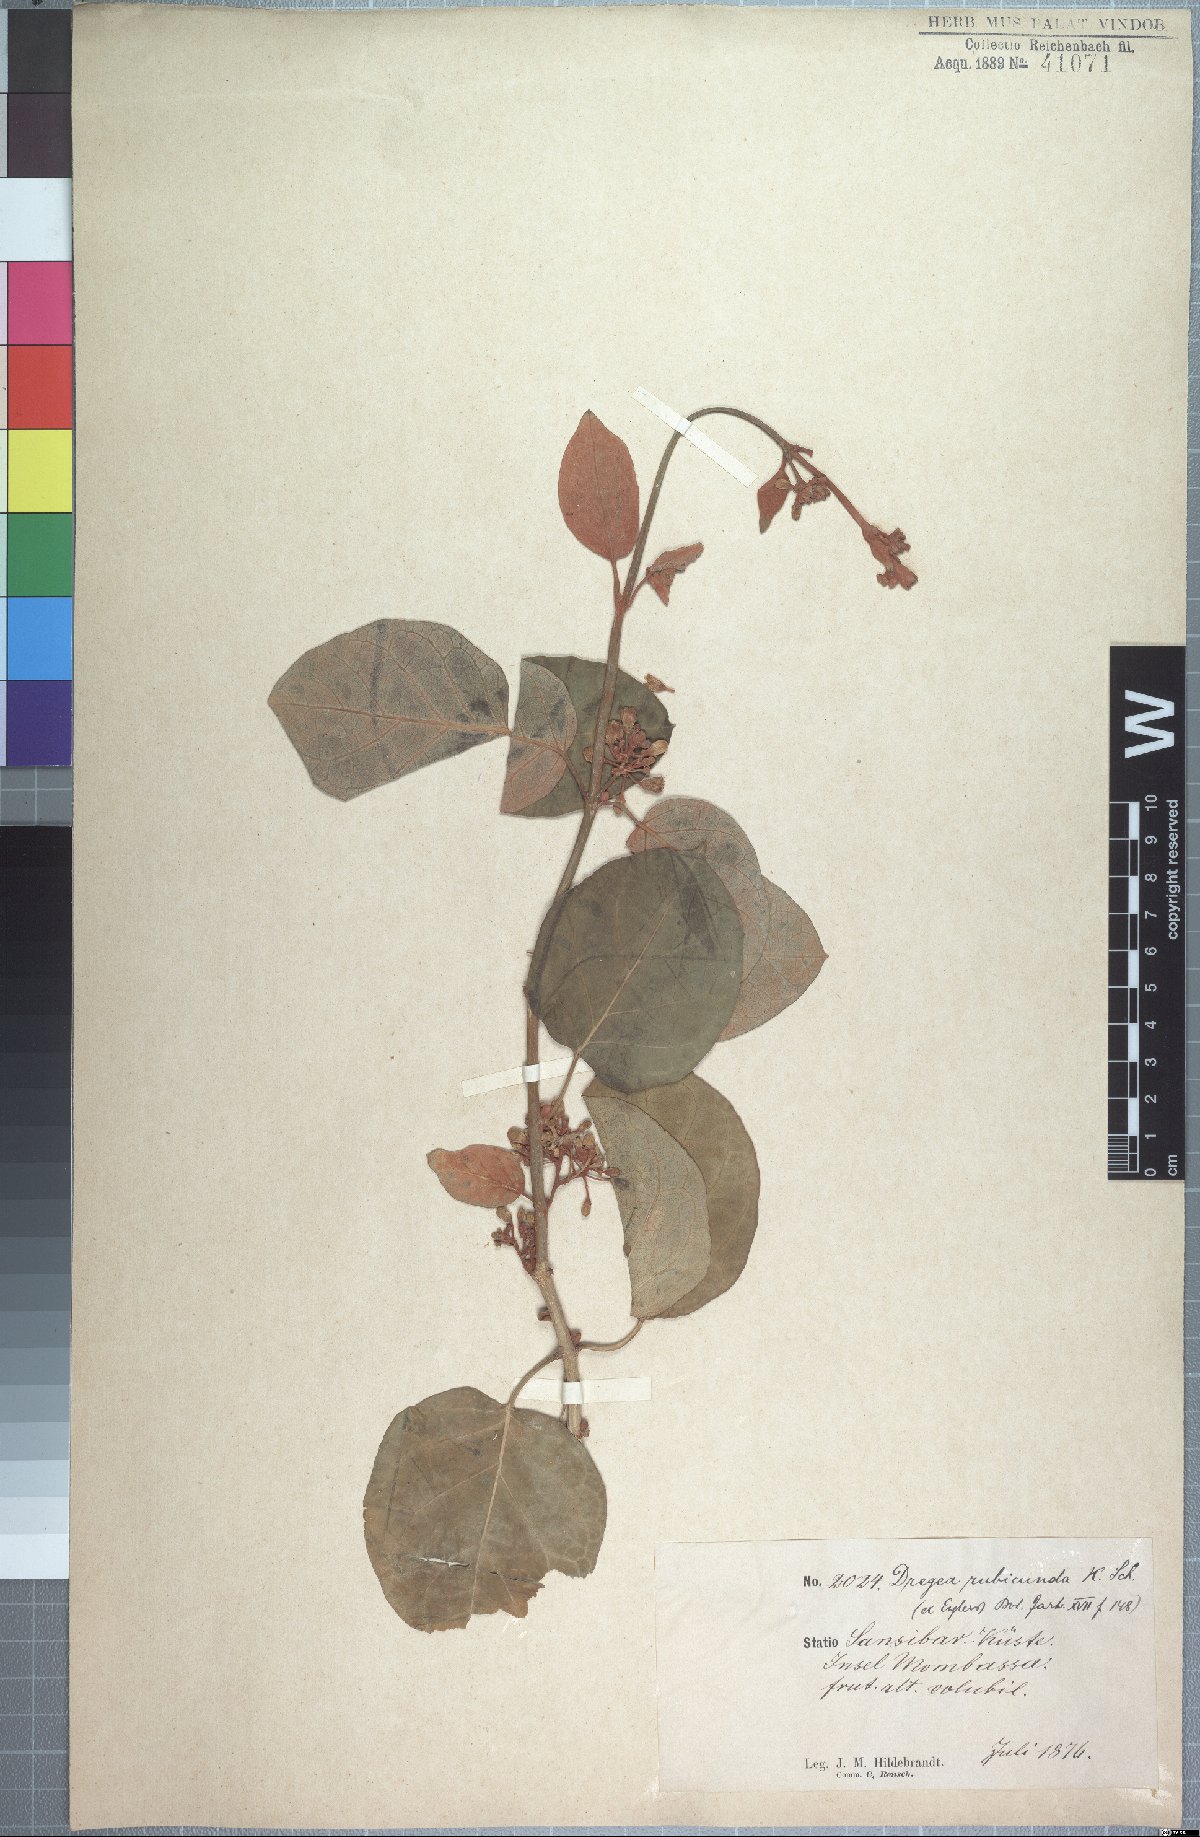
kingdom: Plantae
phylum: Tracheophyta
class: Magnoliopsida
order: Gentianales
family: Apocynaceae
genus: Stephanotis
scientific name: Stephanotis rubicunda
